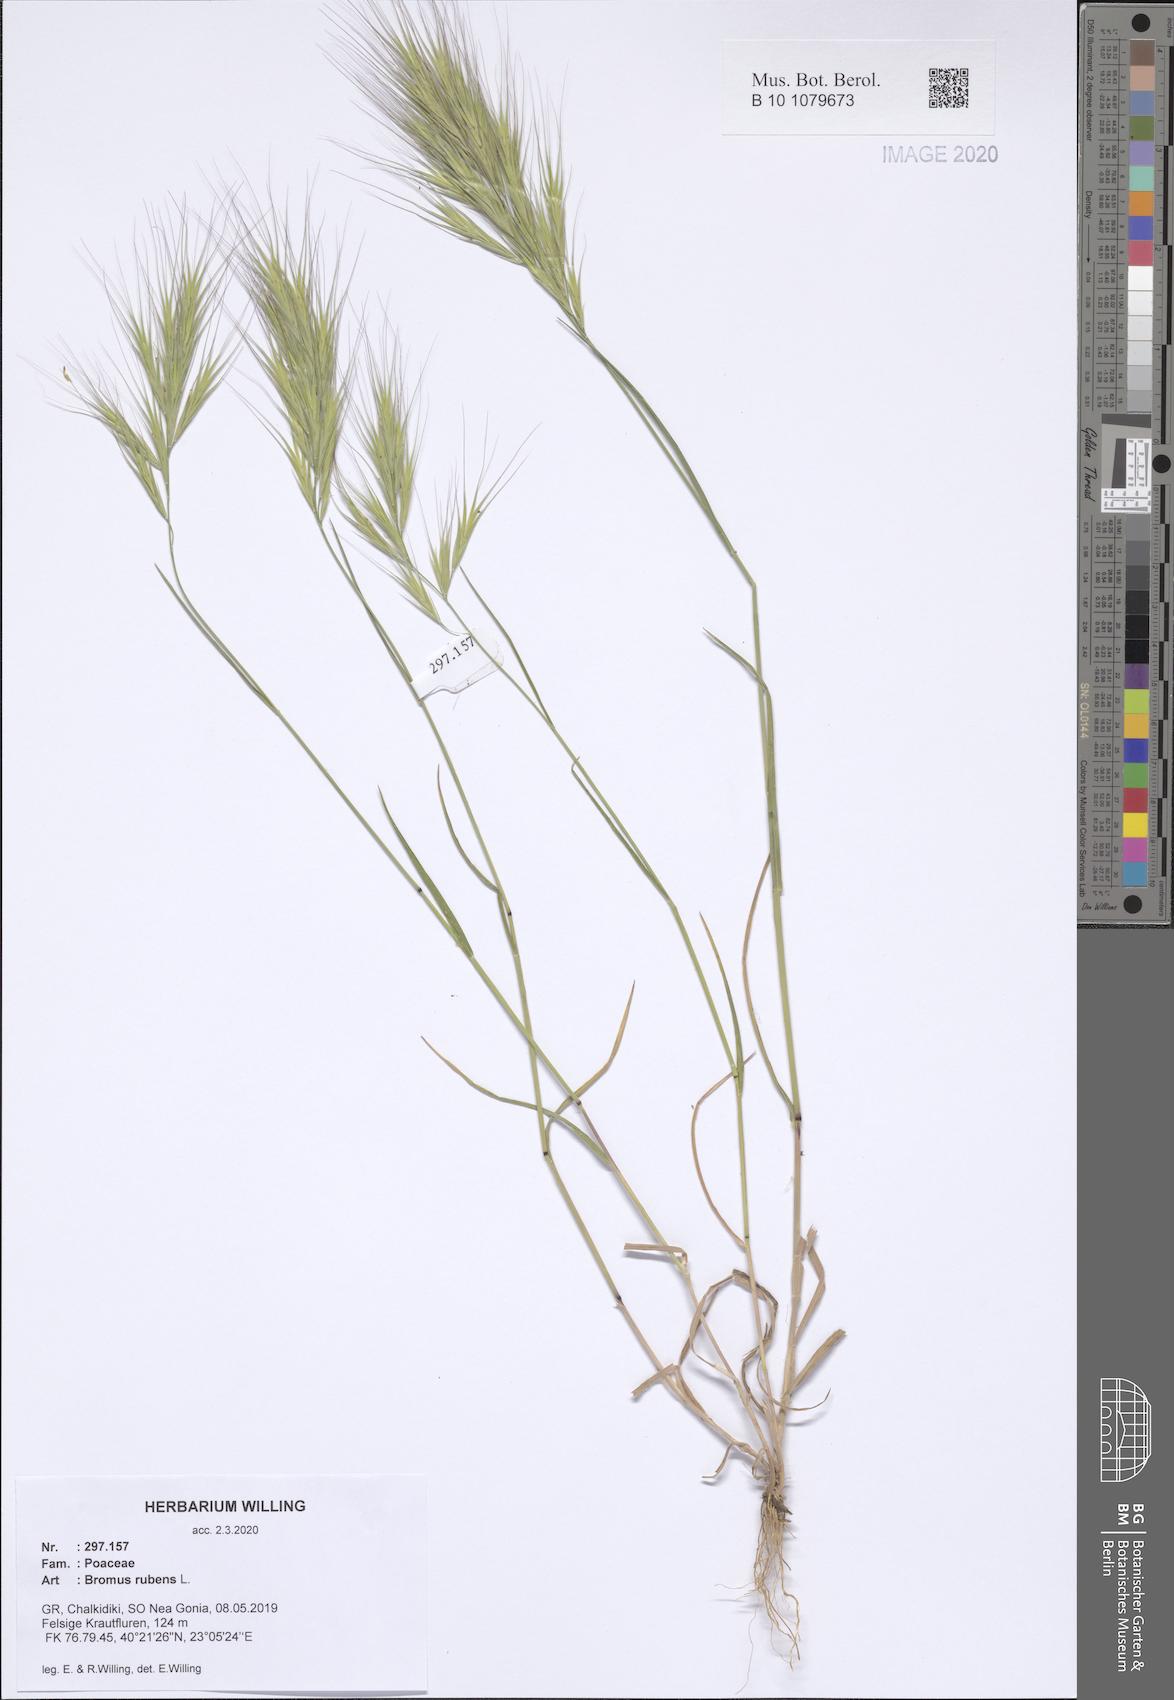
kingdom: Plantae
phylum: Tracheophyta
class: Liliopsida
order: Poales
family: Poaceae
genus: Bromus
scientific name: Bromus rubens
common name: Red brome
